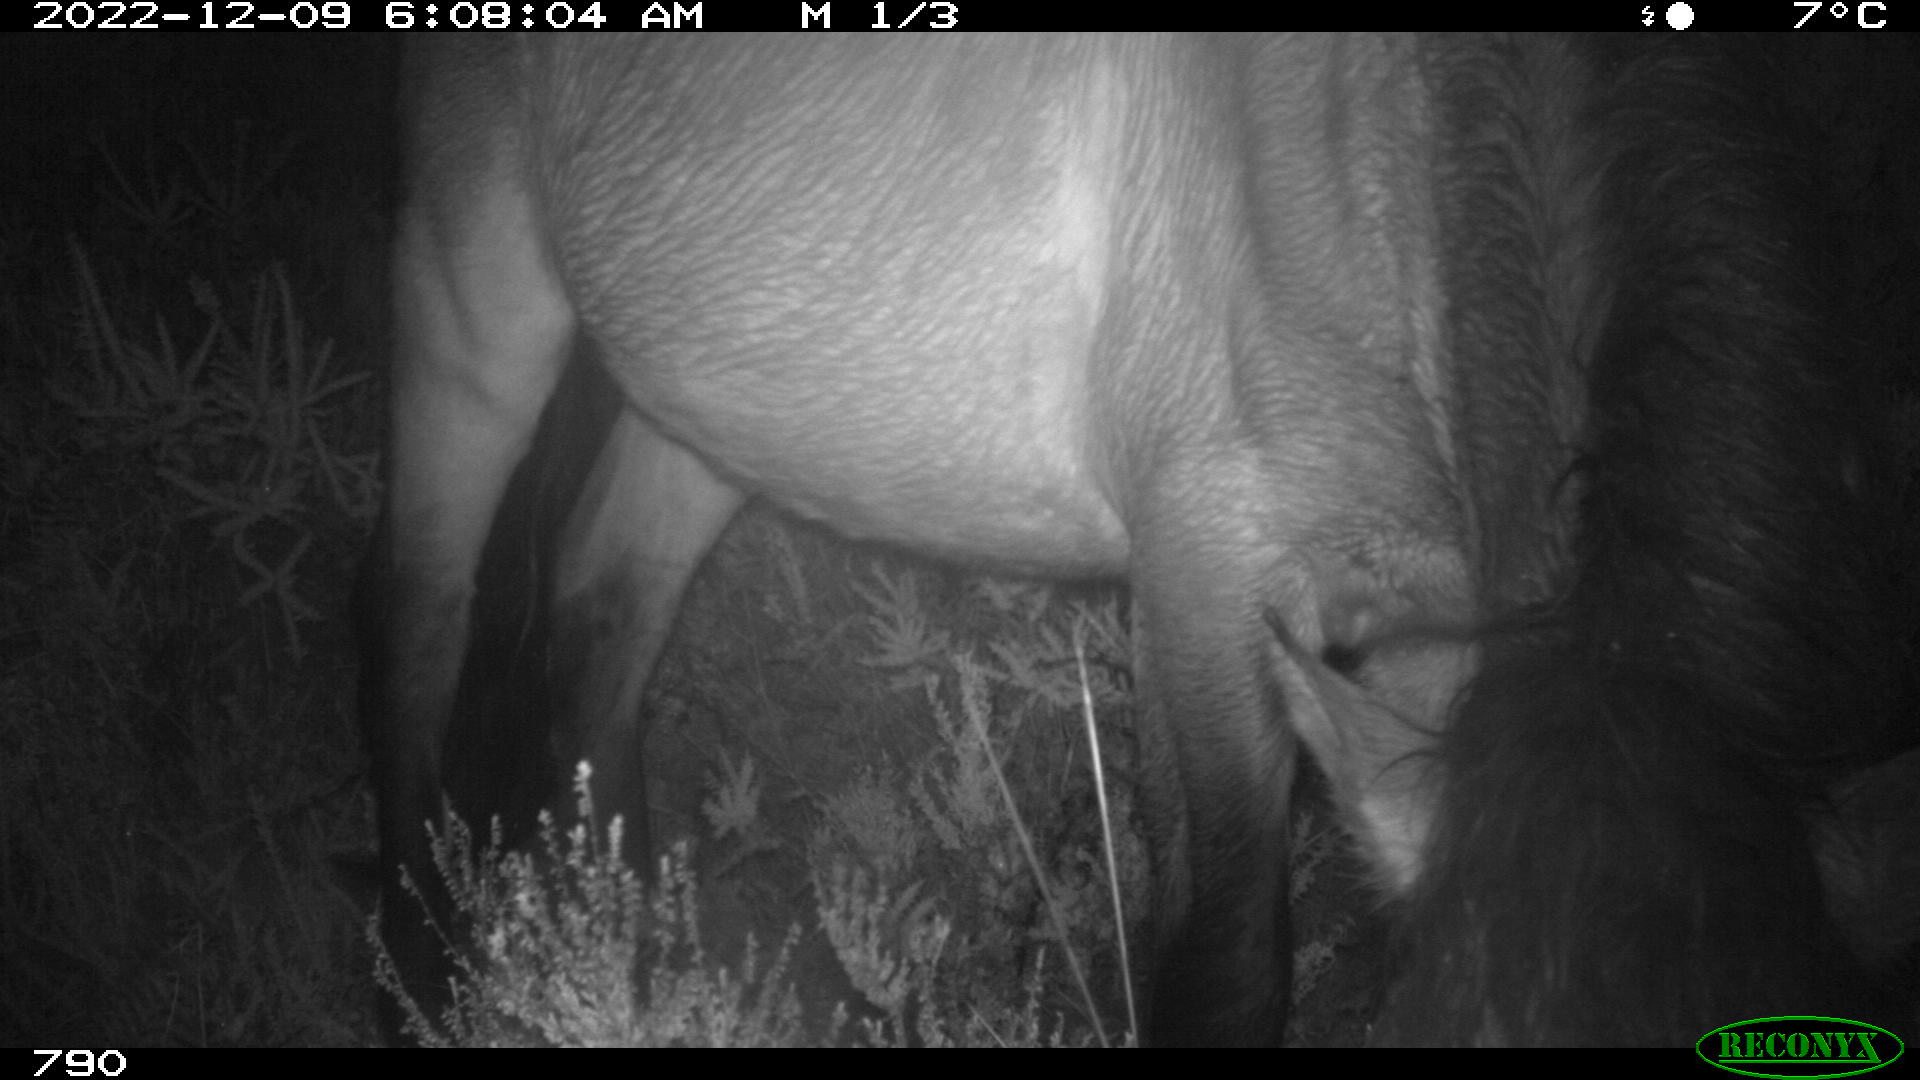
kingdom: Animalia
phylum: Chordata
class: Mammalia
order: Perissodactyla
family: Equidae
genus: Equus
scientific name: Equus caballus
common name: Horse
